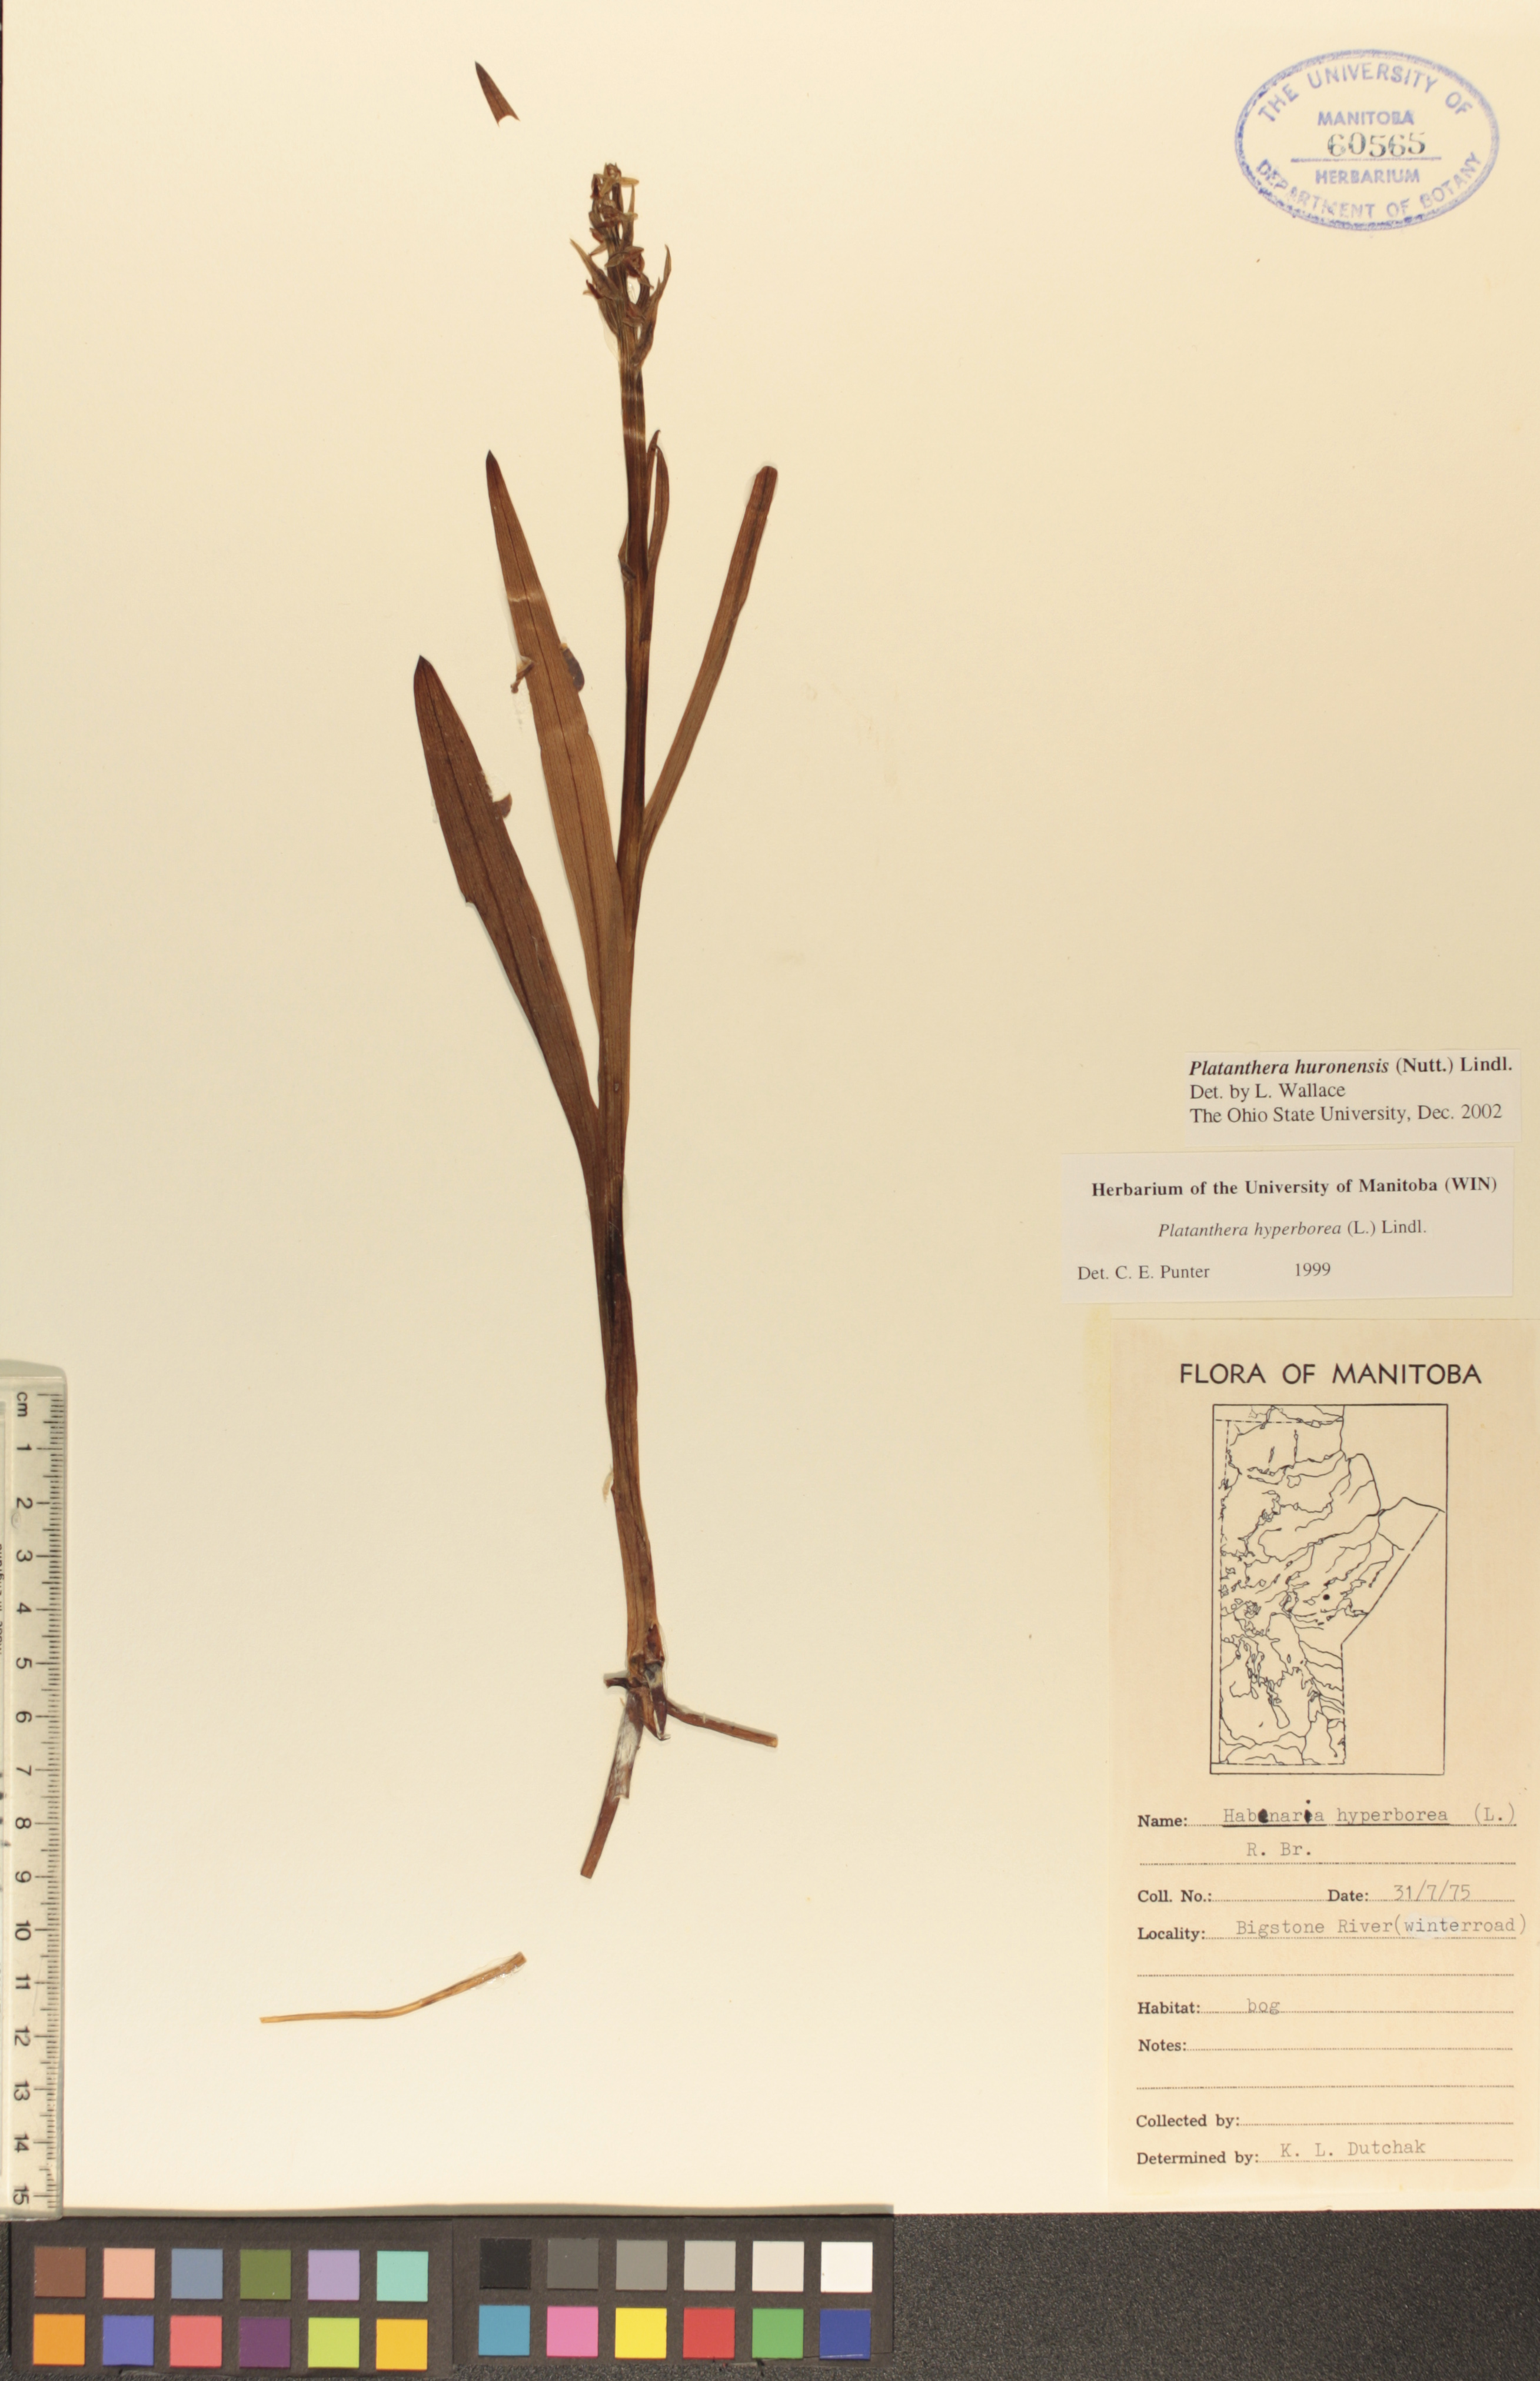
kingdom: Plantae
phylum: Tracheophyta
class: Liliopsida
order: Asparagales
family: Orchidaceae
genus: Platanthera
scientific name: Platanthera huronensis
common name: Fragrant green orchid
